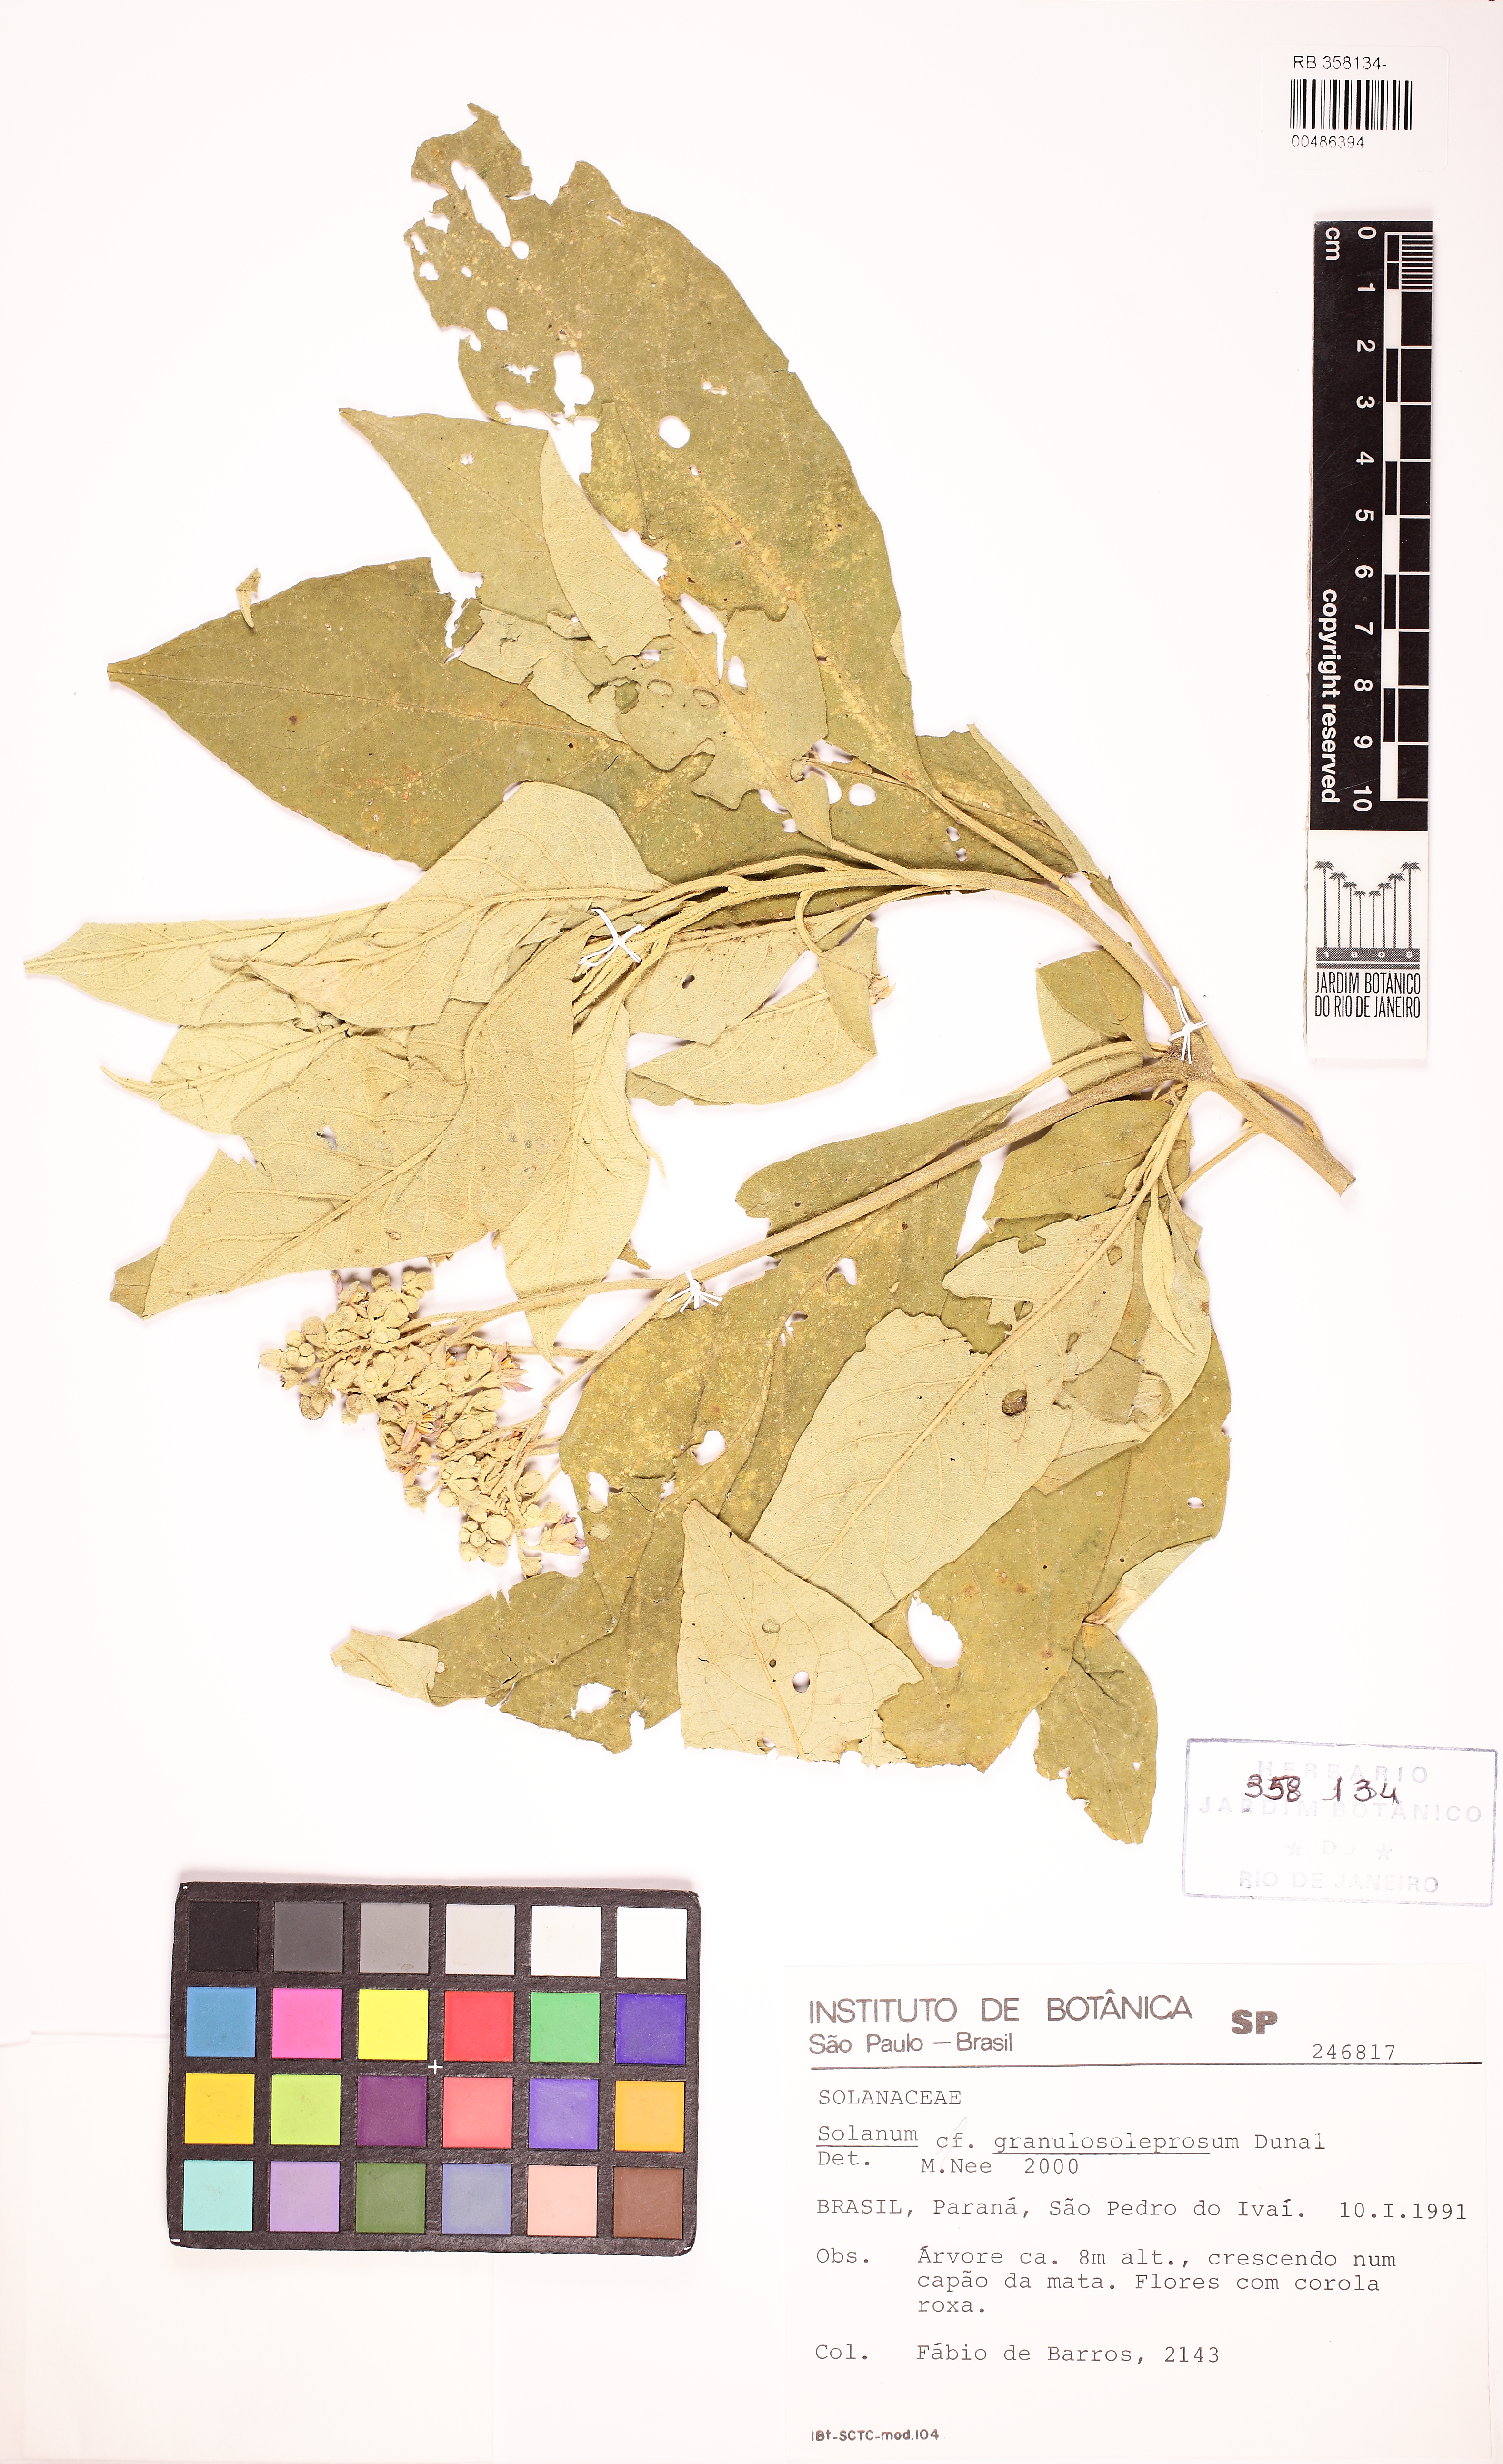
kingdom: Plantae
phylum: Tracheophyta
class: Magnoliopsida
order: Solanales
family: Solanaceae
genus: Solanum
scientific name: Solanum granulosoleprosum
